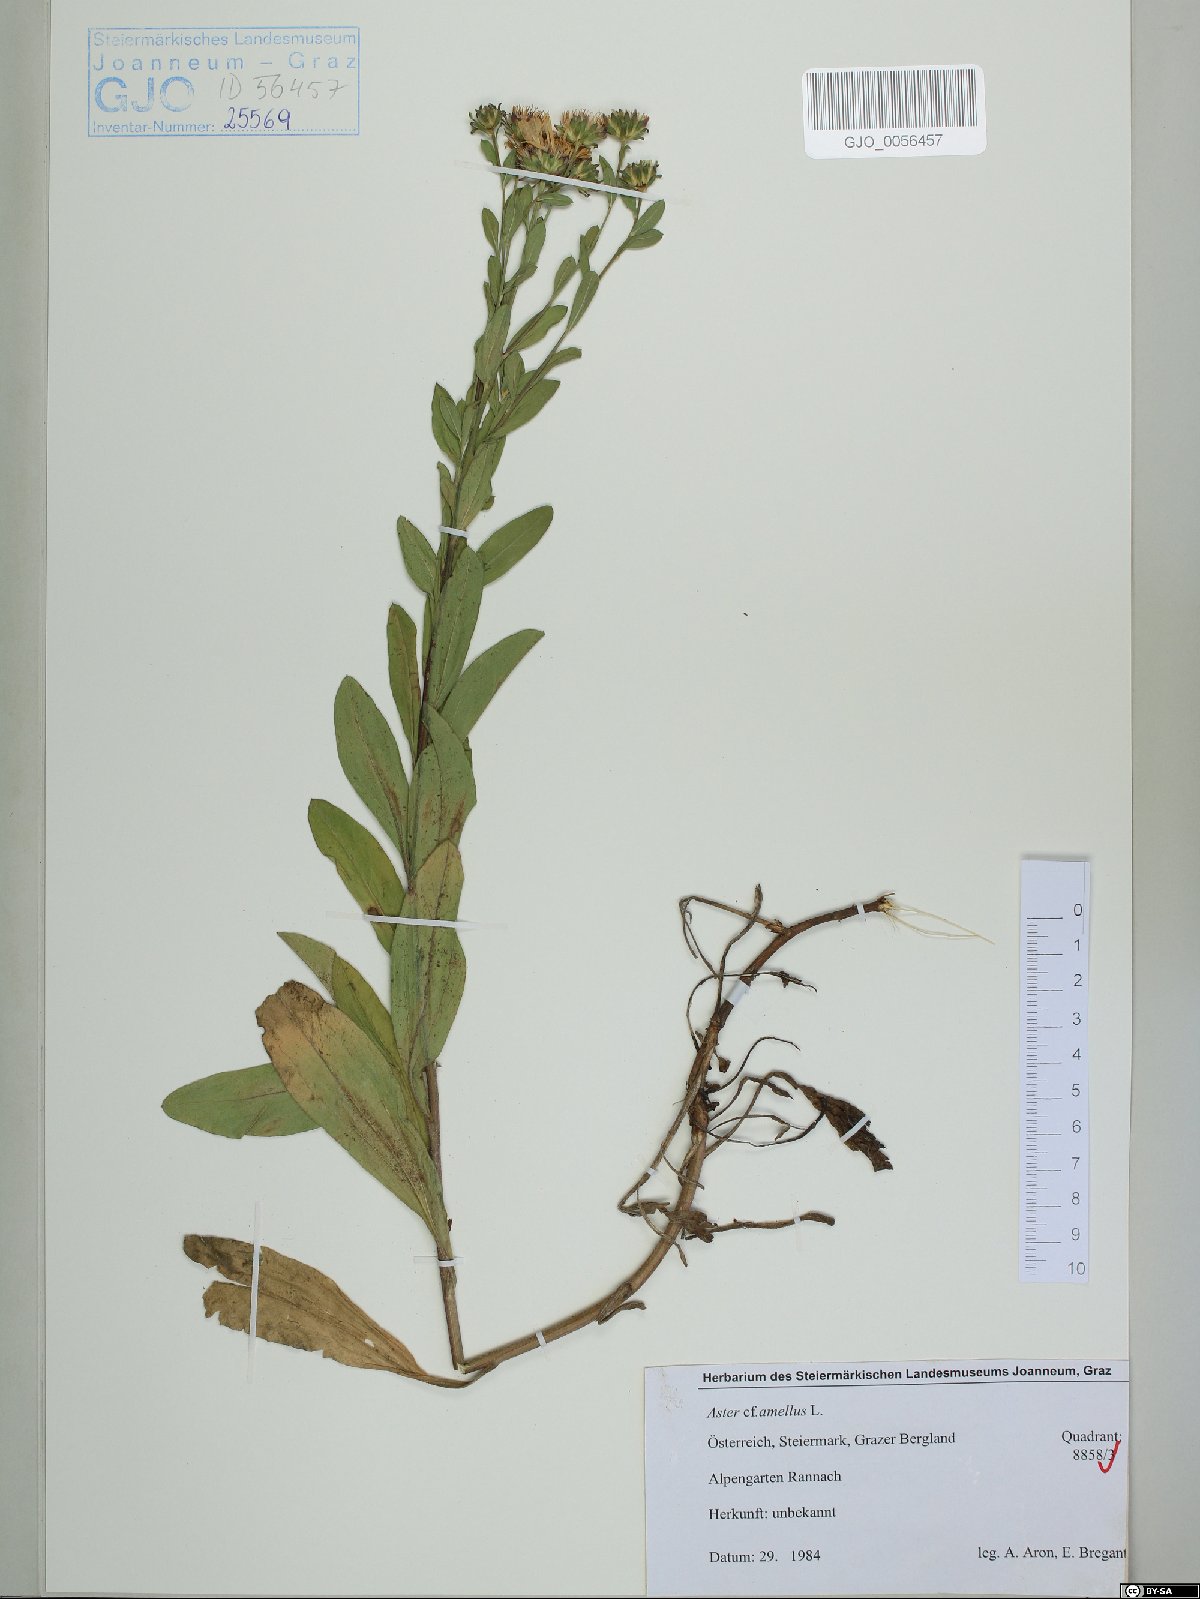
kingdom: Plantae
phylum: Tracheophyta
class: Magnoliopsida
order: Asterales
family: Asteraceae
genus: Aster
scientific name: Aster amellus
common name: European michaelmas daisy
